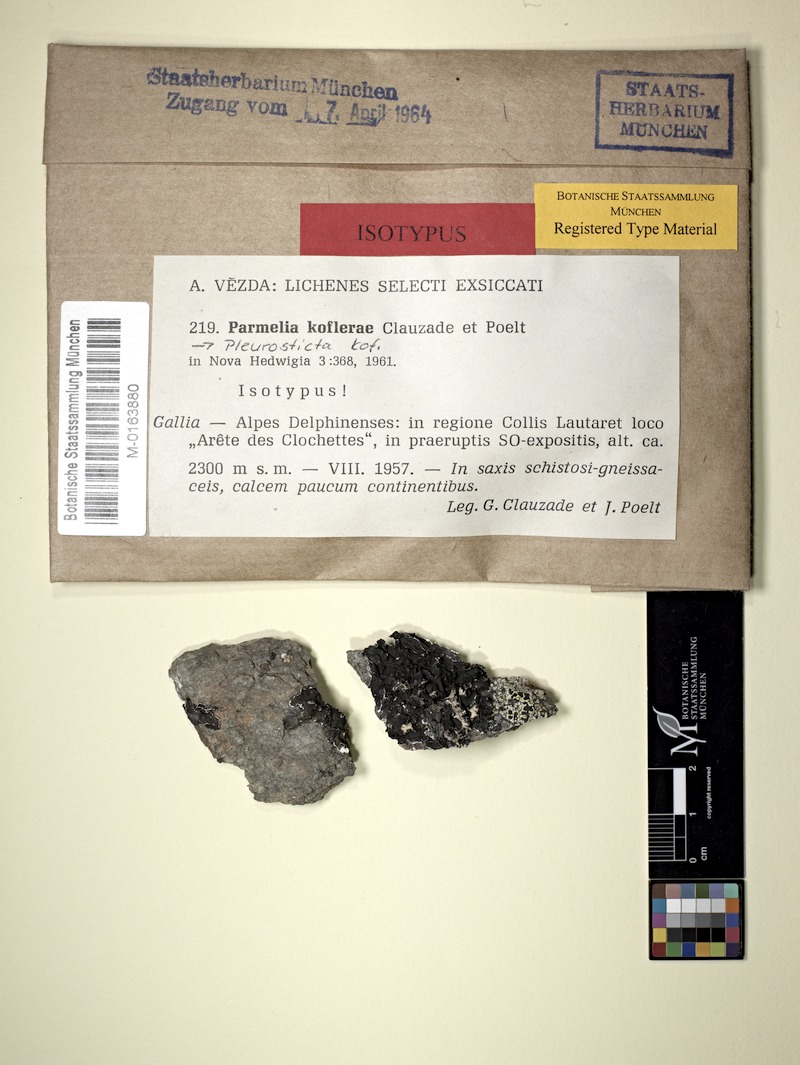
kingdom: Fungi
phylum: Ascomycota
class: Lecanoromycetes
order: Lecanorales
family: Parmeliaceae
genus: Pleurosticta
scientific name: Pleurosticta koflerae
